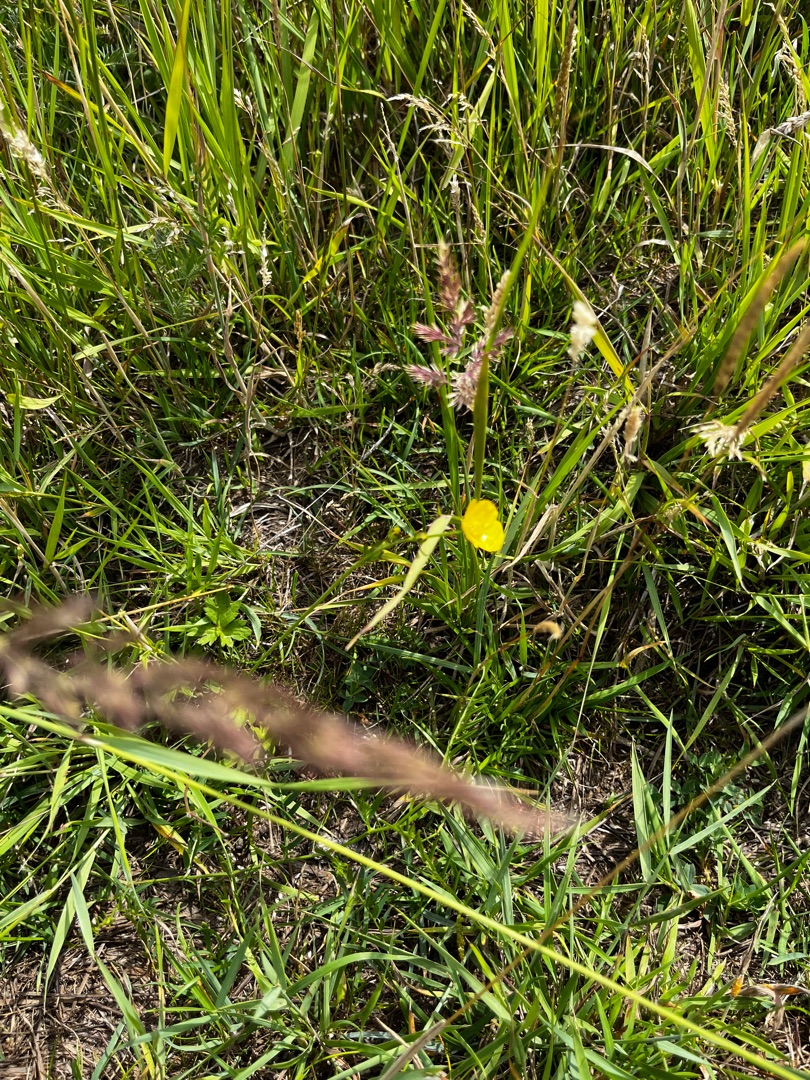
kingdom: Plantae
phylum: Tracheophyta
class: Magnoliopsida
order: Ranunculales
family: Ranunculaceae
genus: Ranunculus
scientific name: Ranunculus acris
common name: Bidende ranunkel
